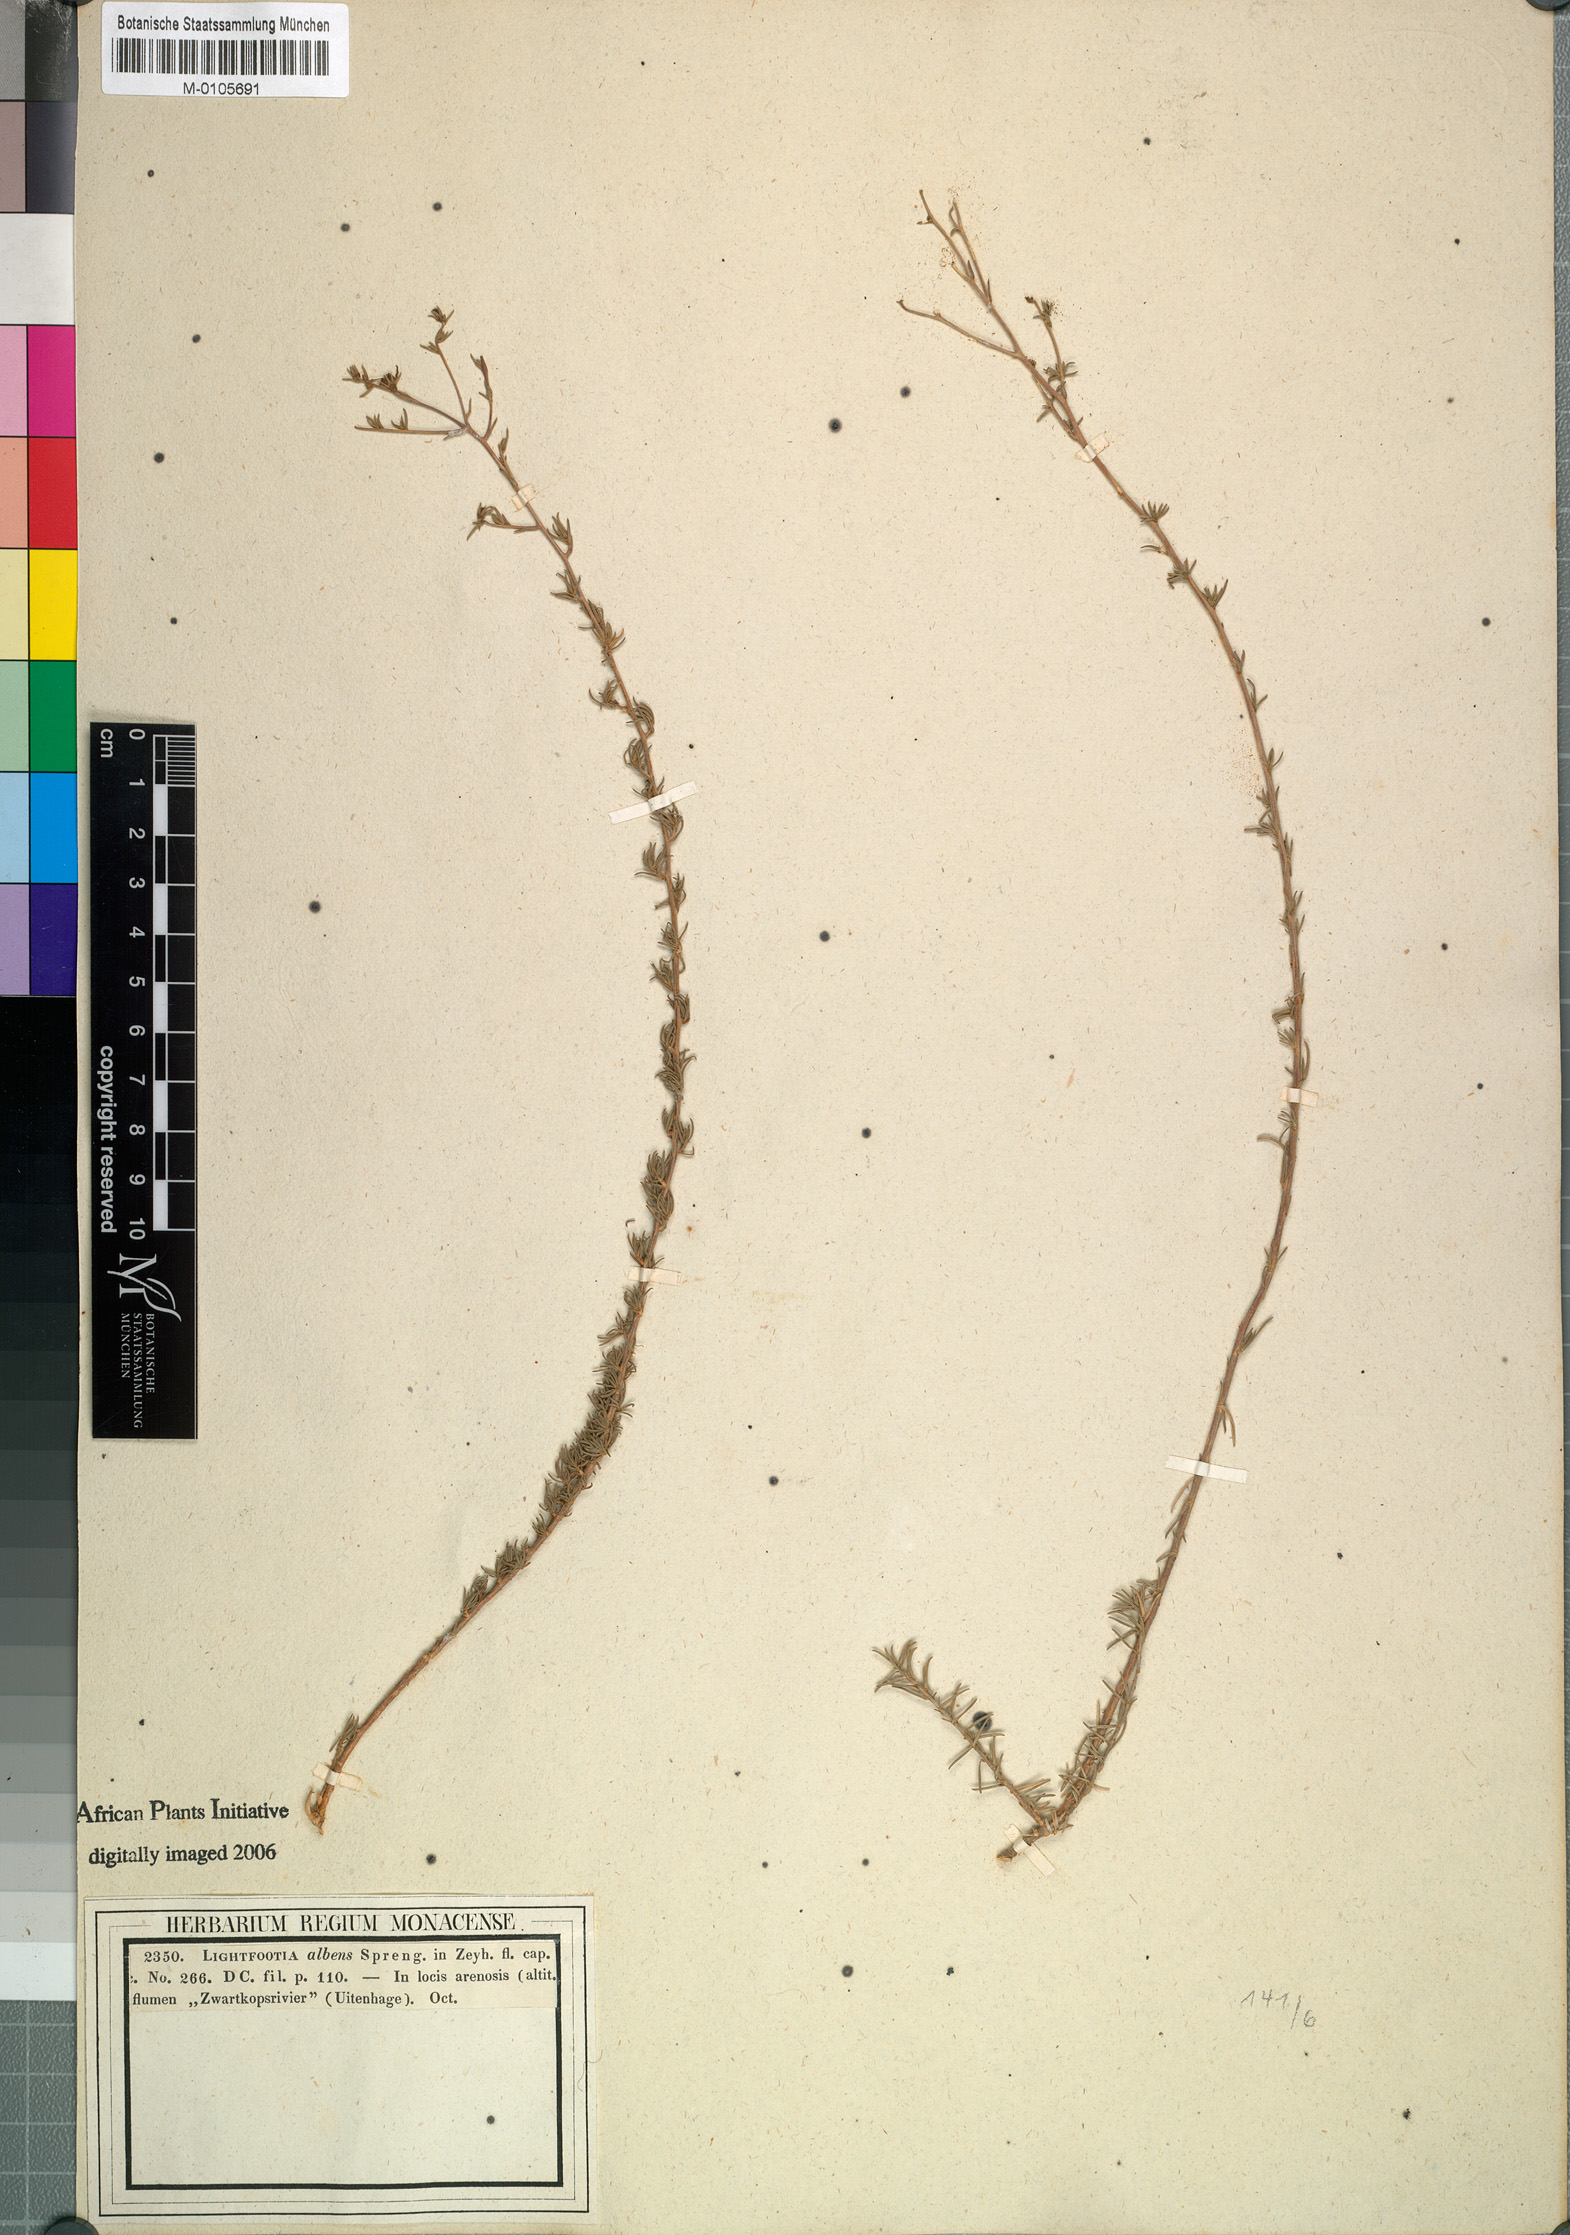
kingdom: Plantae
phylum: Tracheophyta
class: Magnoliopsida
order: Asterales
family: Campanulaceae
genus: Wahlenbergia
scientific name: Wahlenbergia albens
